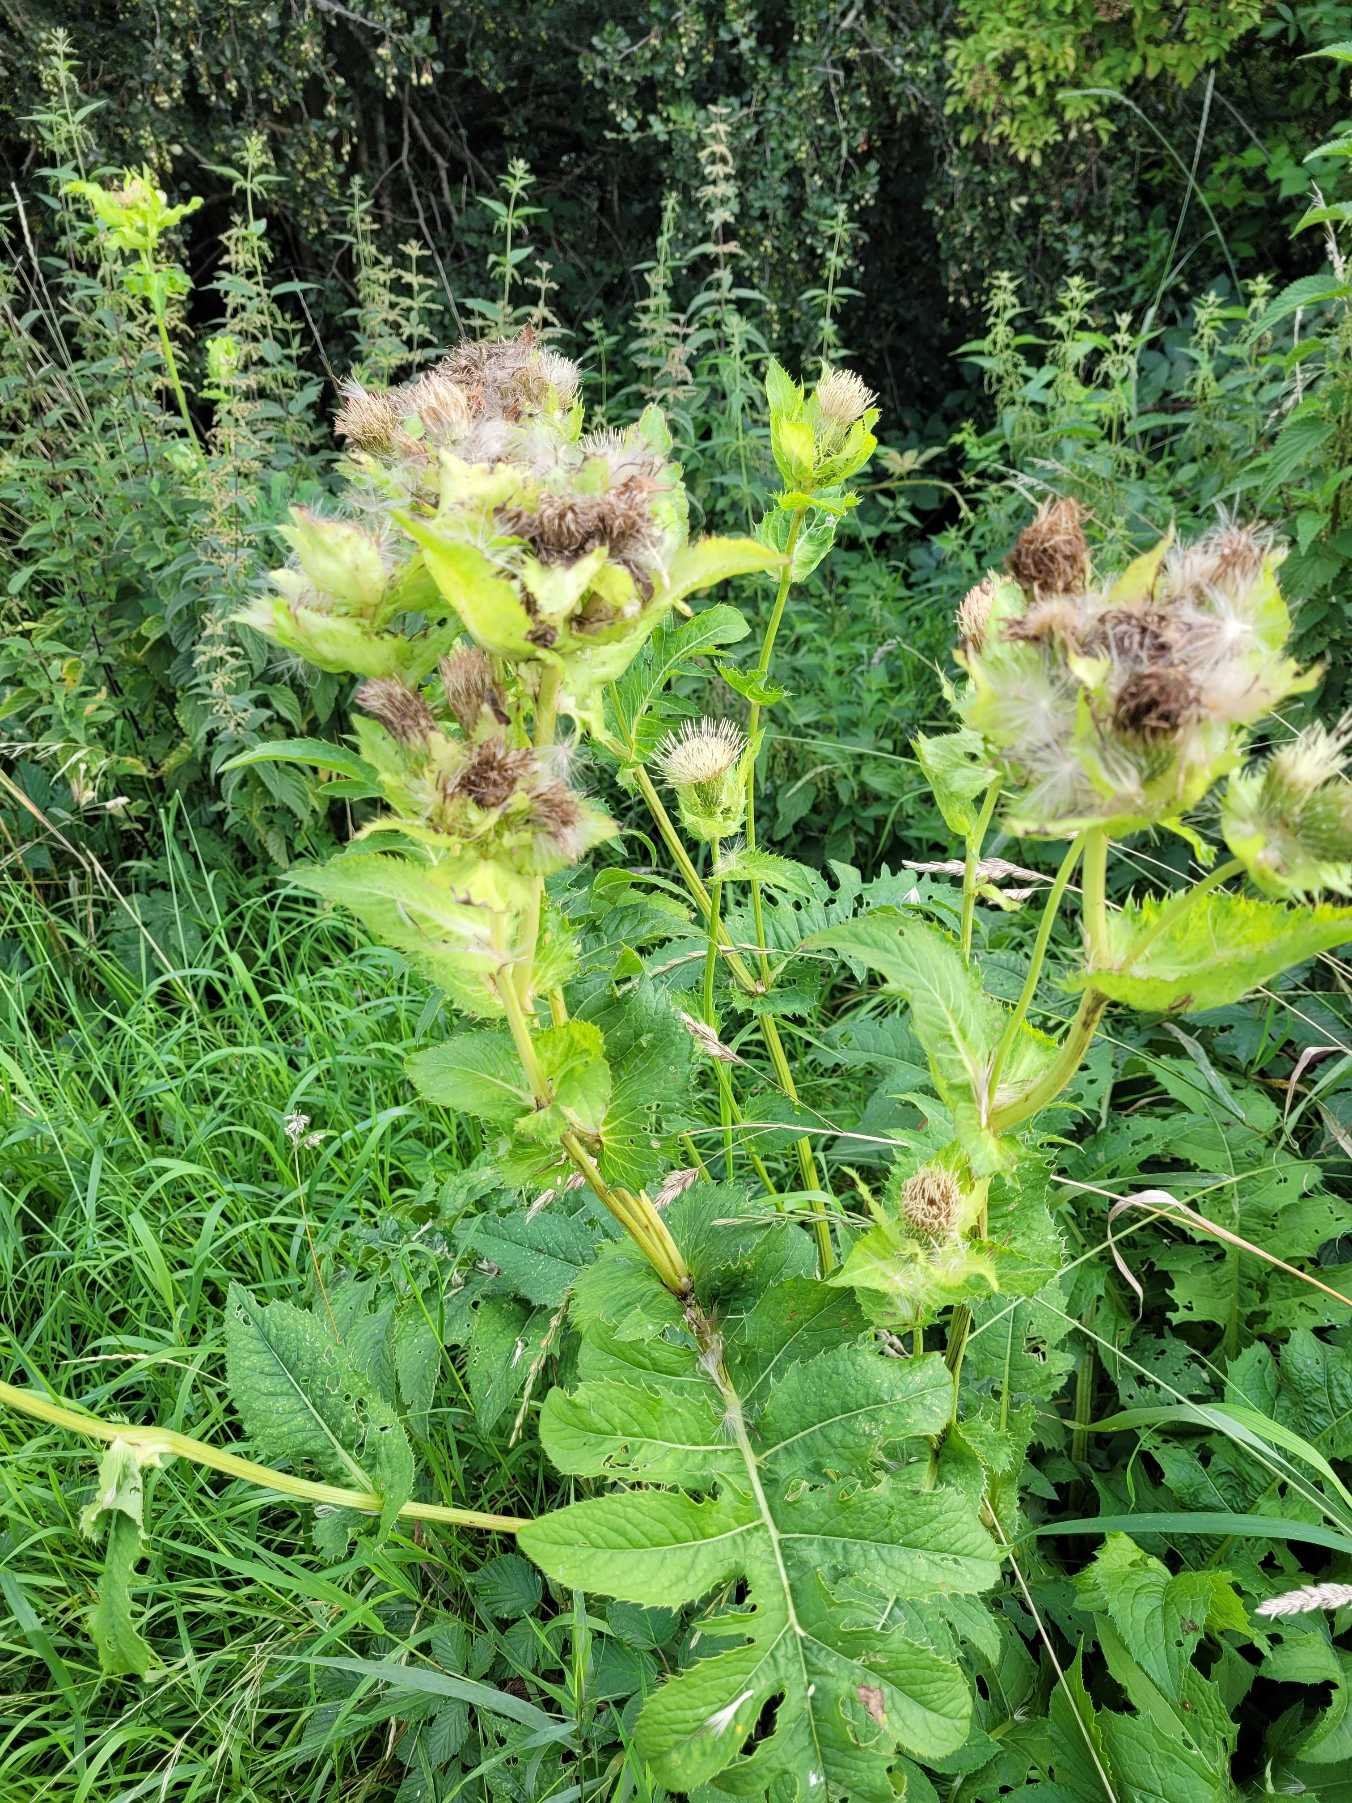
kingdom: Plantae
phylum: Tracheophyta
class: Magnoliopsida
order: Asterales
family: Asteraceae
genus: Cirsium
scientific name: Cirsium oleraceum
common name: Kål-tidsel
